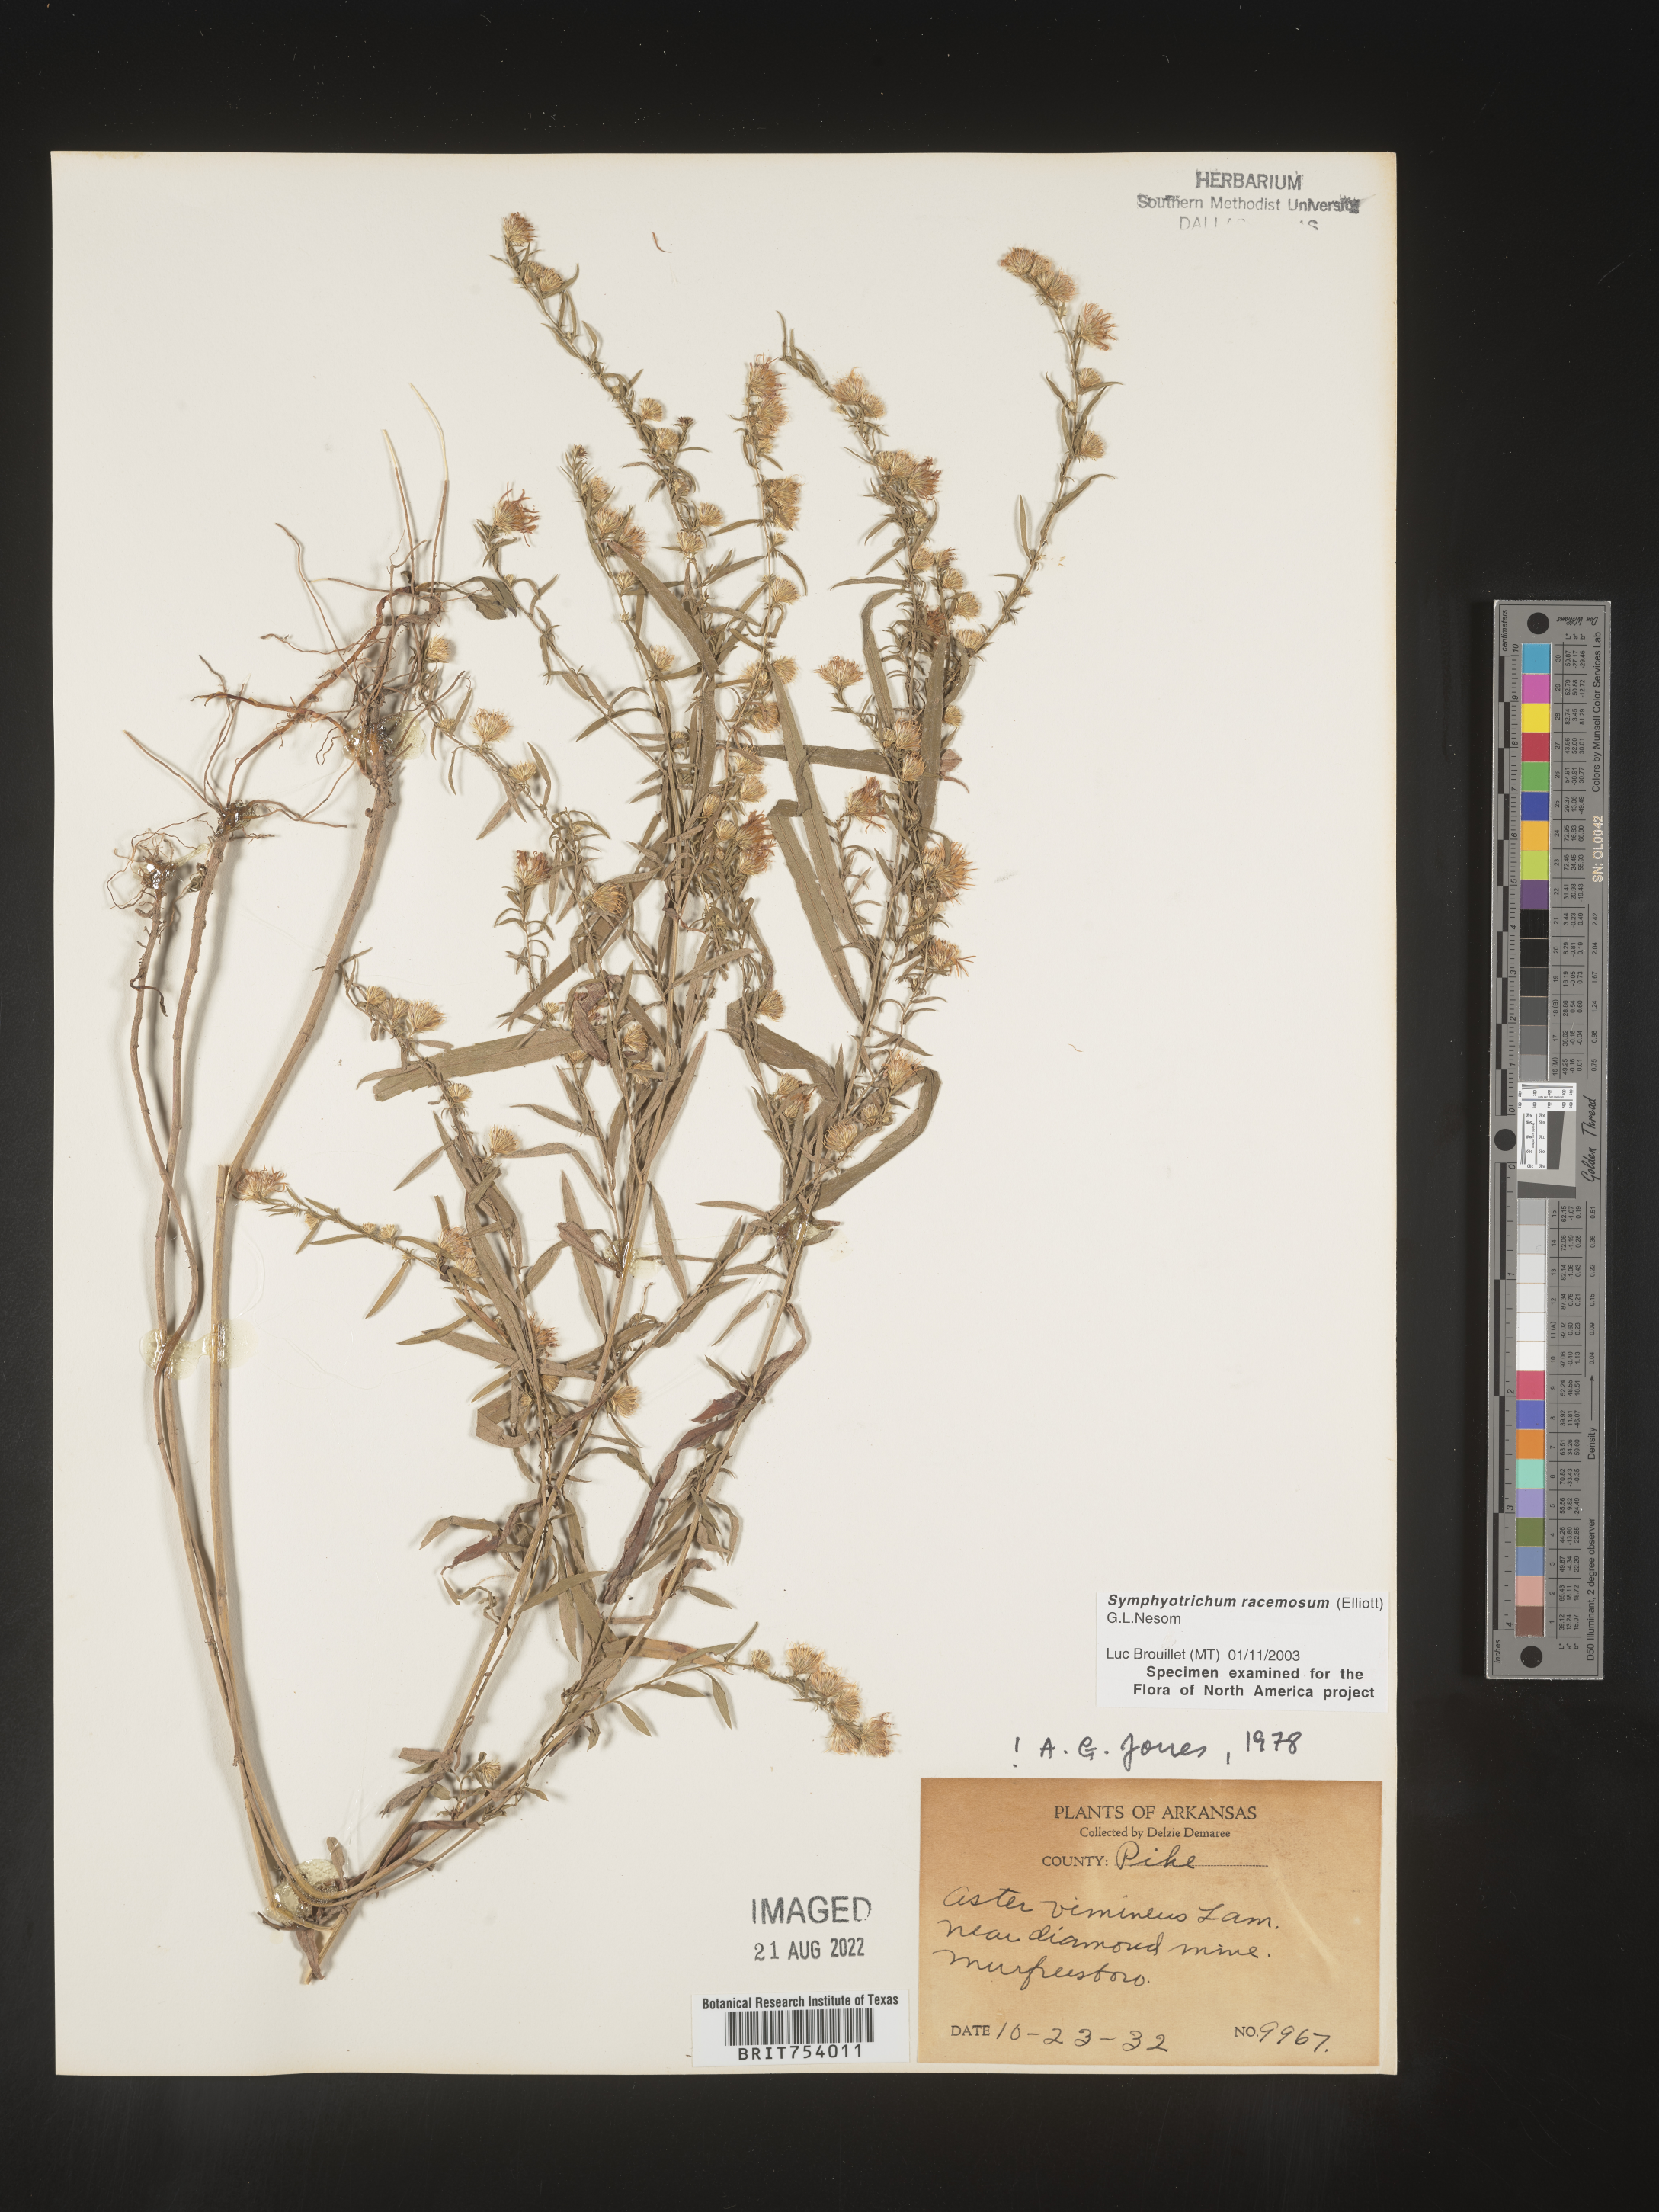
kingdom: Plantae
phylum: Tracheophyta
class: Magnoliopsida
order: Asterales
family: Asteraceae
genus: Symphyotrichum
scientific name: Symphyotrichum racemosum
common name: Small white aster
